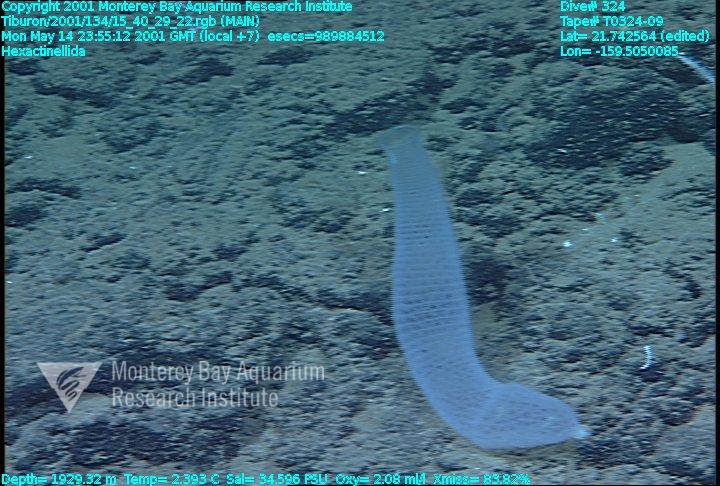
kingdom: Animalia
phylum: Porifera
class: Hexactinellida
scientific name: Hexactinellida
